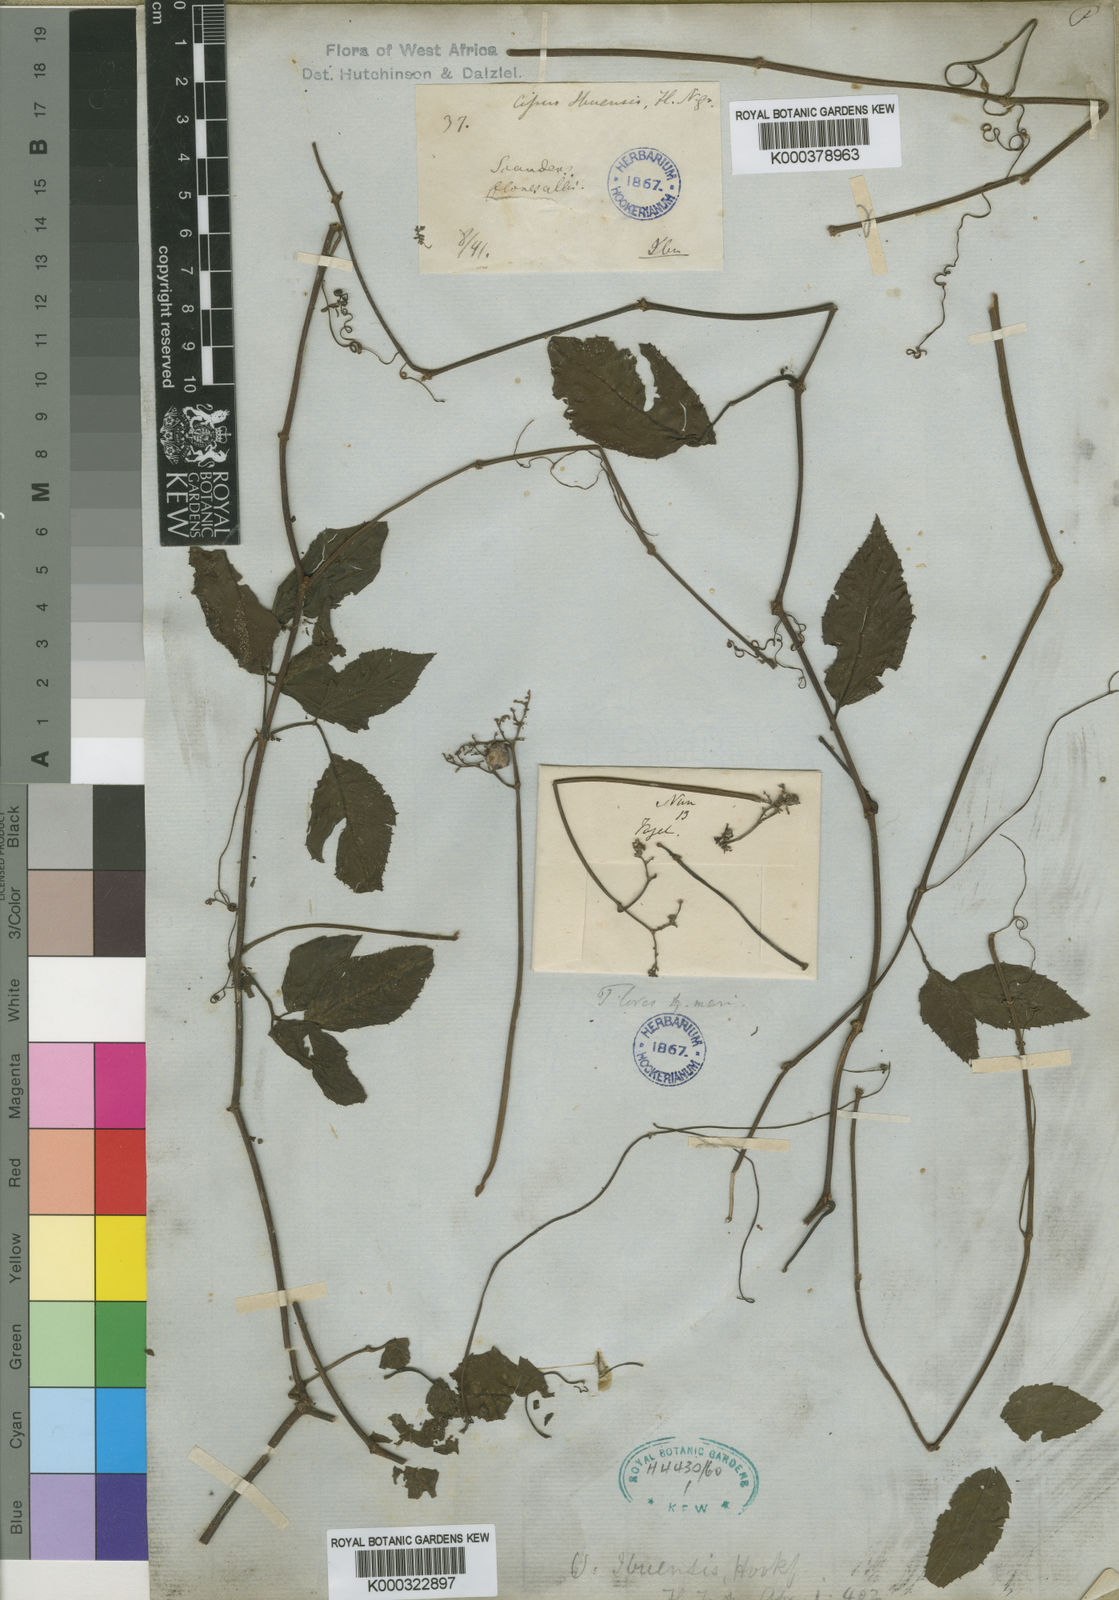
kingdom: Plantae
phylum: Tracheophyta
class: Magnoliopsida
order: Vitales
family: Vitaceae
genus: Afrocayratia
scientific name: Afrocayratia ibuensis
